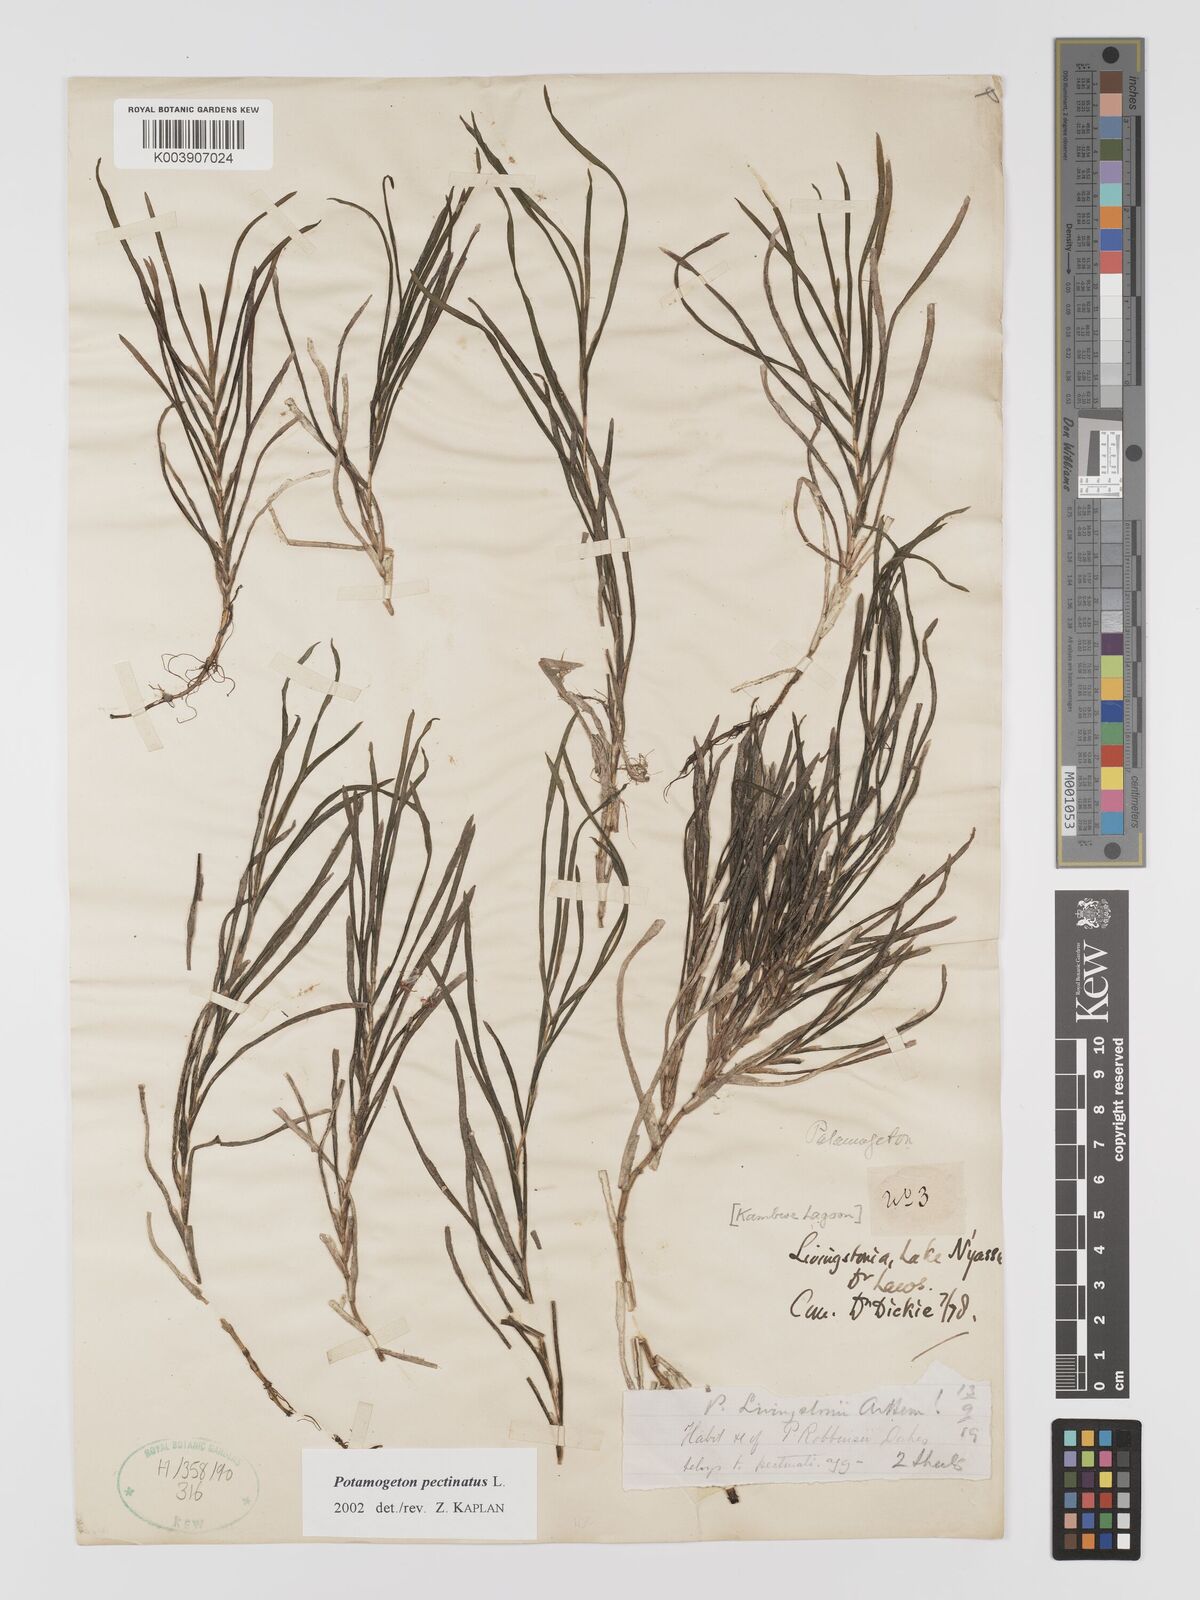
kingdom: Plantae
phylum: Tracheophyta
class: Liliopsida
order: Alismatales
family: Potamogetonaceae
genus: Stuckenia
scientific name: Stuckenia pectinata
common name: Sago pondweed
